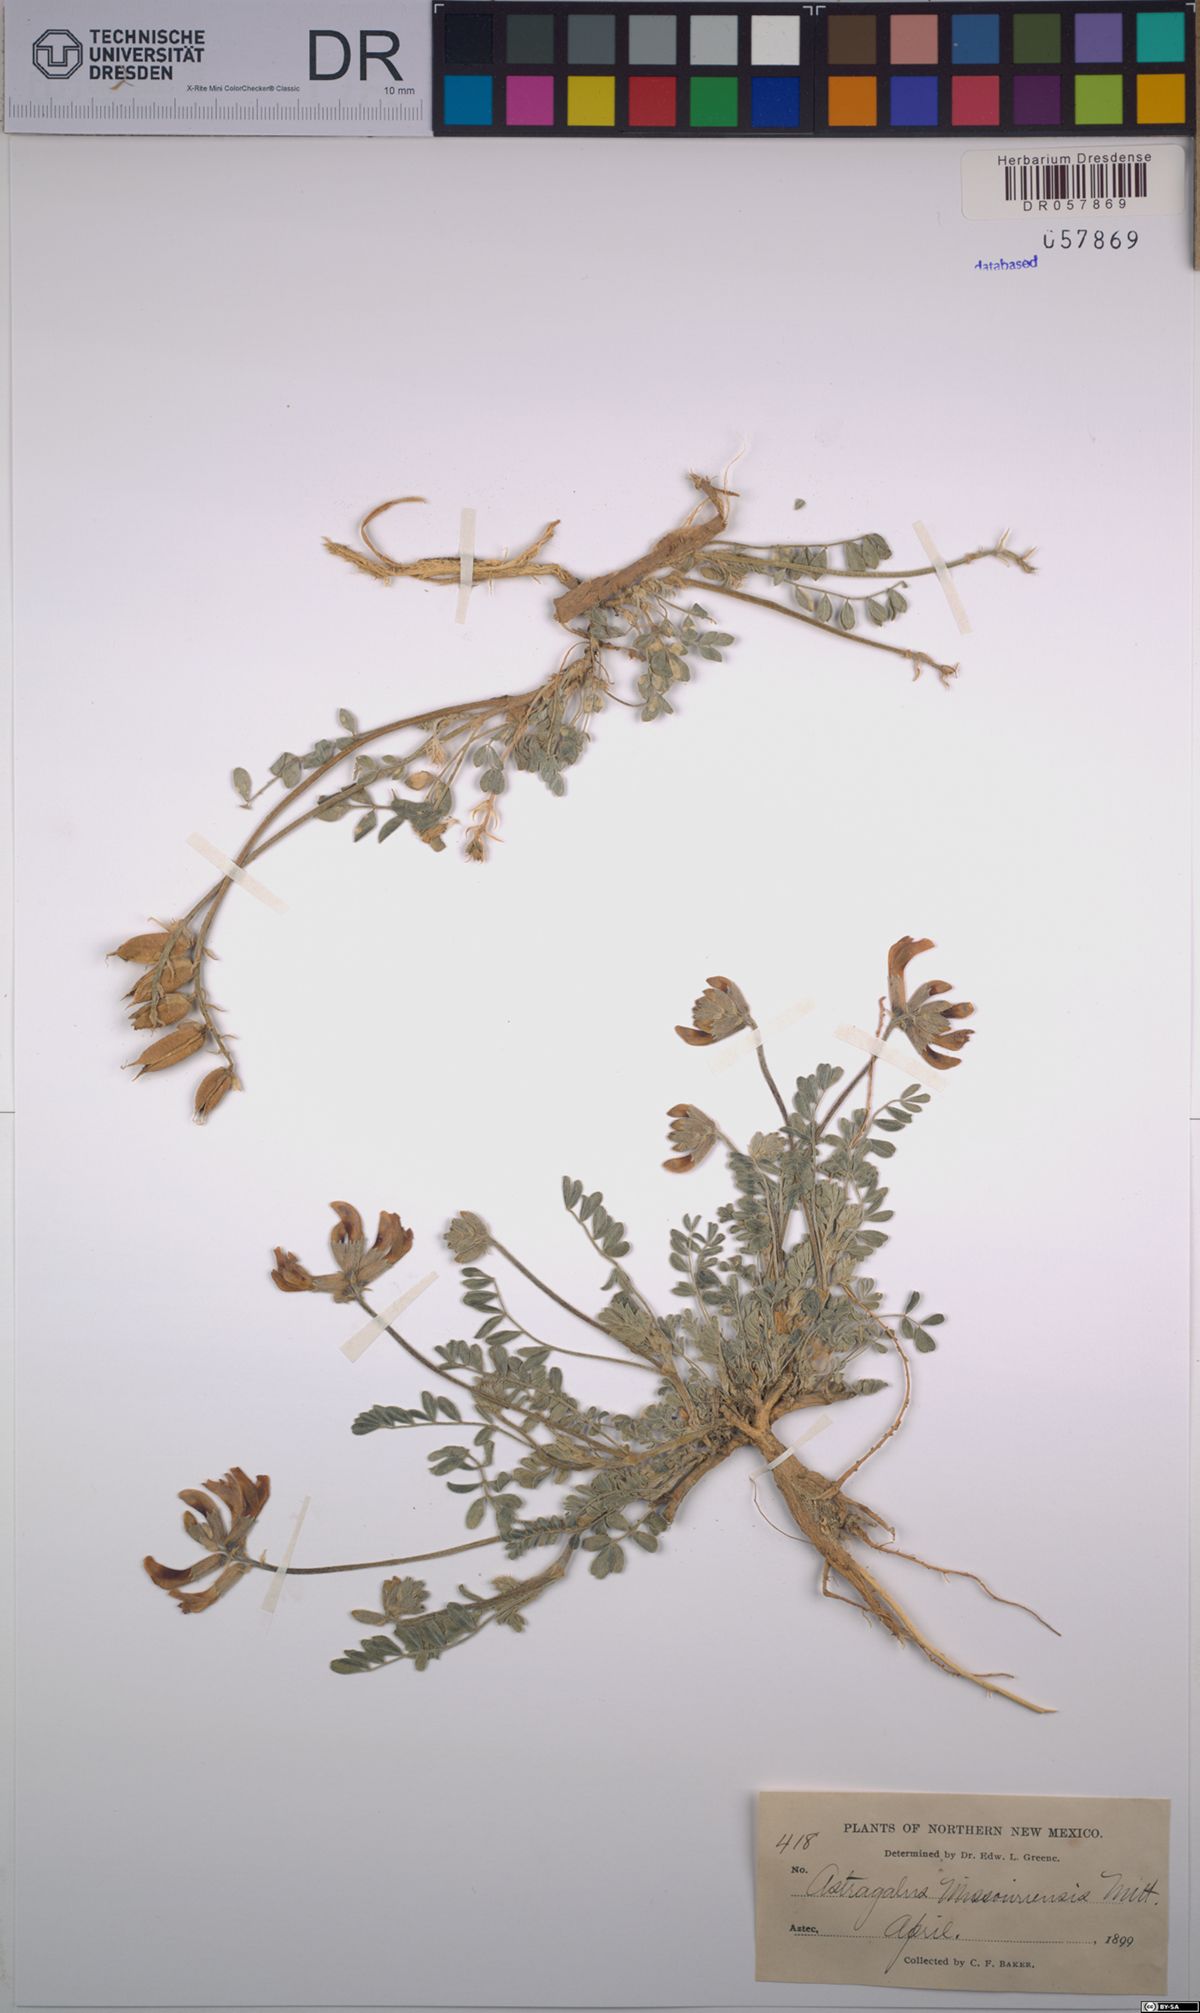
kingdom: Plantae
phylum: Tracheophyta
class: Magnoliopsida
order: Fabales
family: Fabaceae
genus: Astragalus
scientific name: Astragalus missouriensis
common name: Missouri milk-vetch
